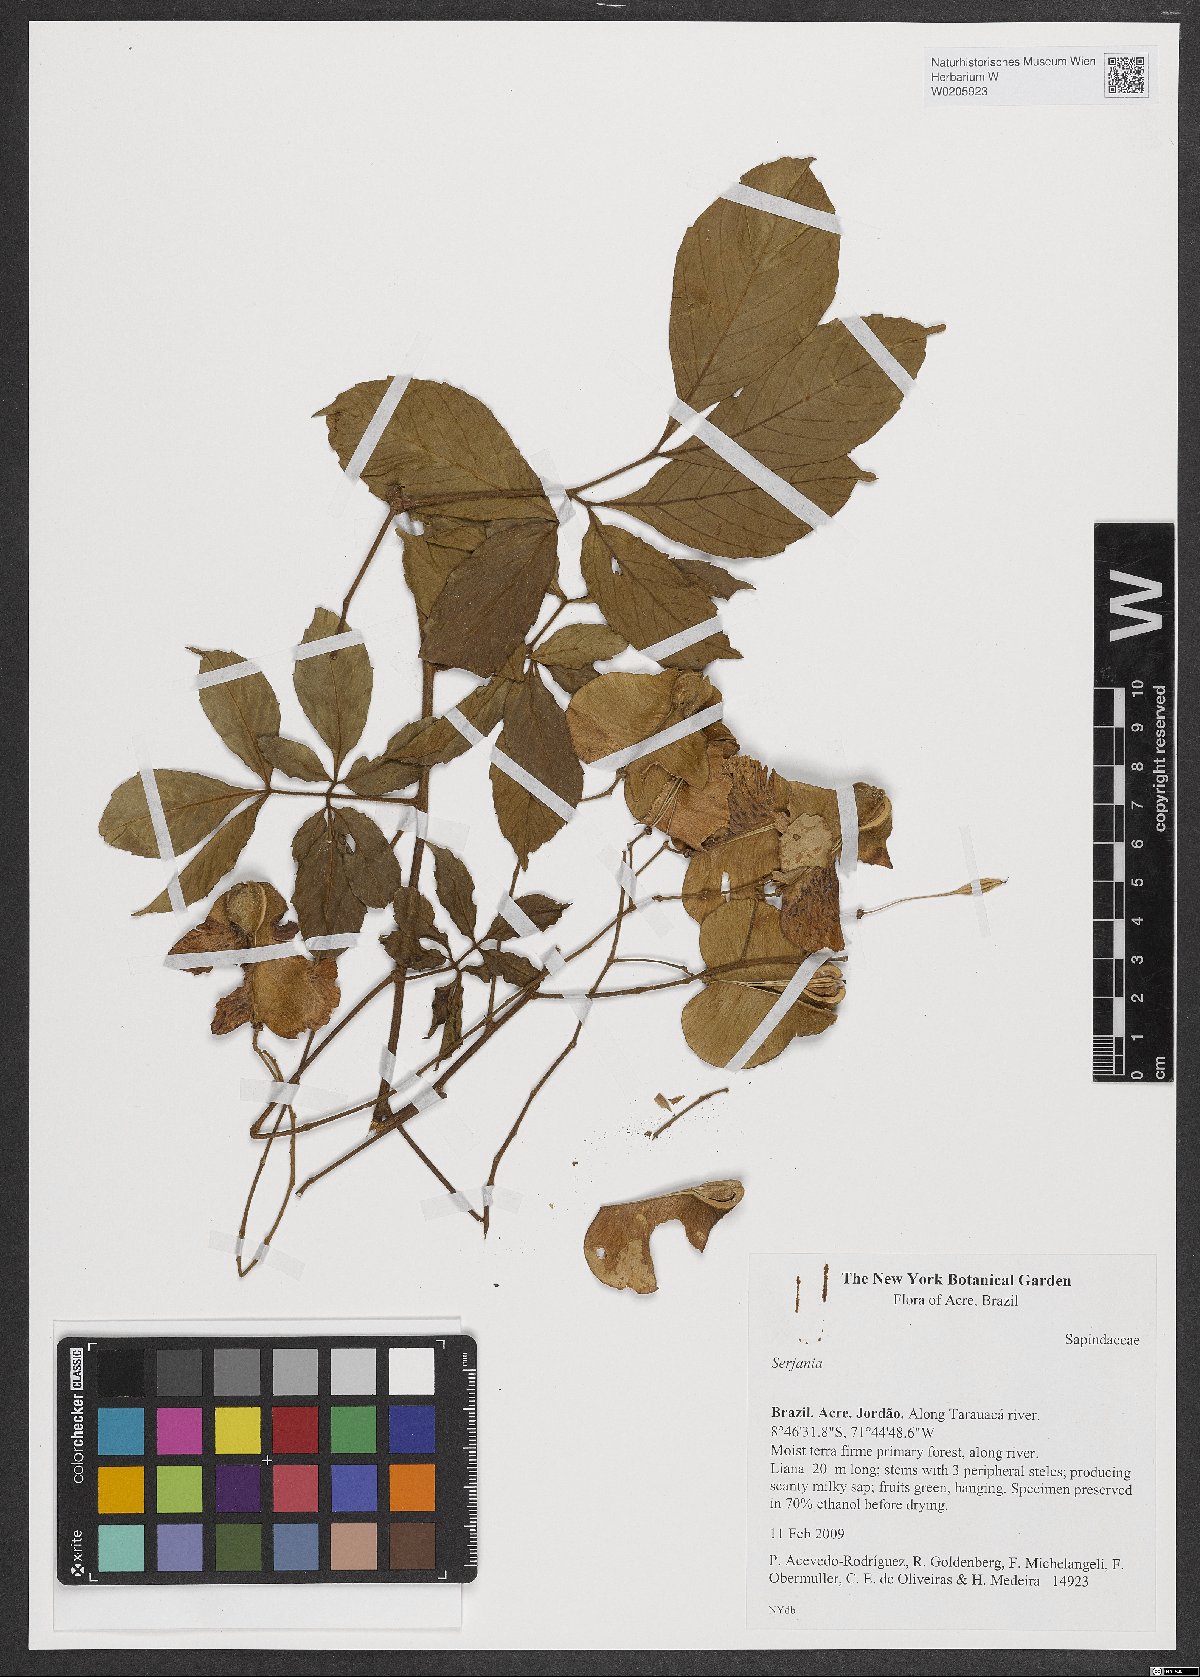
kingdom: Plantae
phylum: Tracheophyta
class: Magnoliopsida
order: Sapindales
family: Sapindaceae
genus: Serjania
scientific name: Serjania
